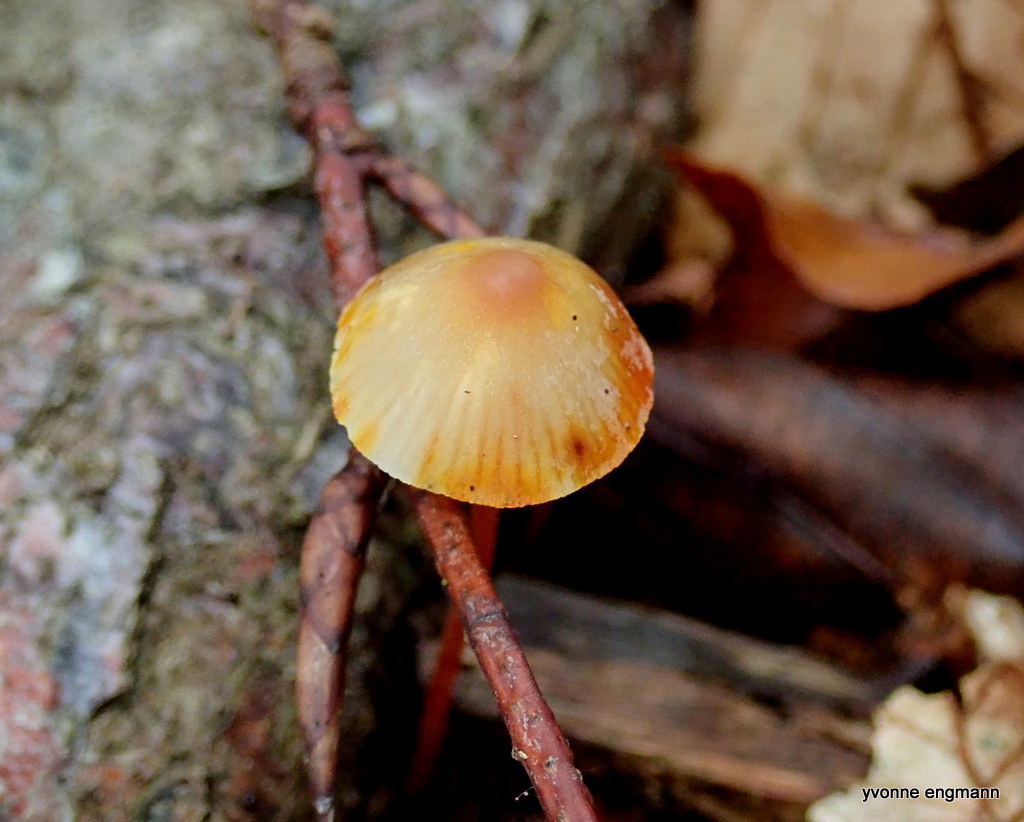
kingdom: Fungi
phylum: Basidiomycota
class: Agaricomycetes
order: Agaricales
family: Mycenaceae
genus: Mycena
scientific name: Mycena crocata
